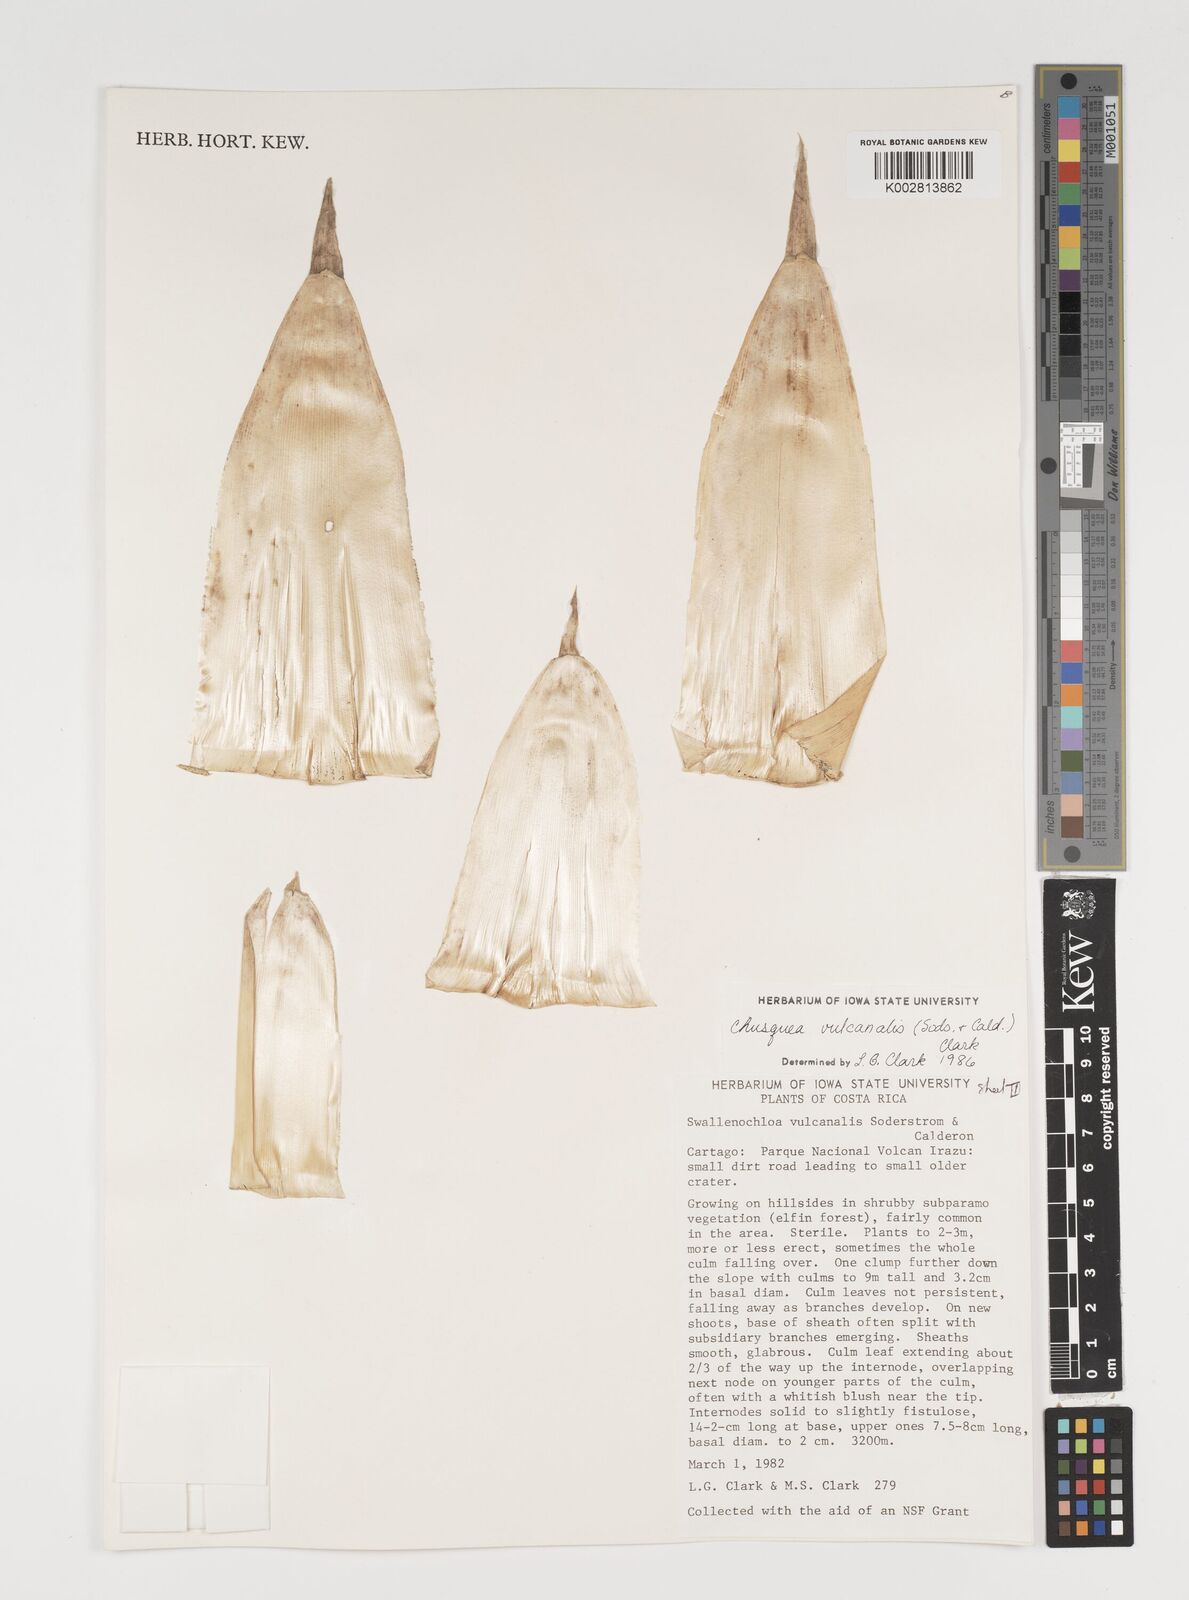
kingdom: Plantae
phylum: Tracheophyta
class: Liliopsida
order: Poales
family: Poaceae
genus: Chusquea
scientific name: Chusquea vulcanalis
